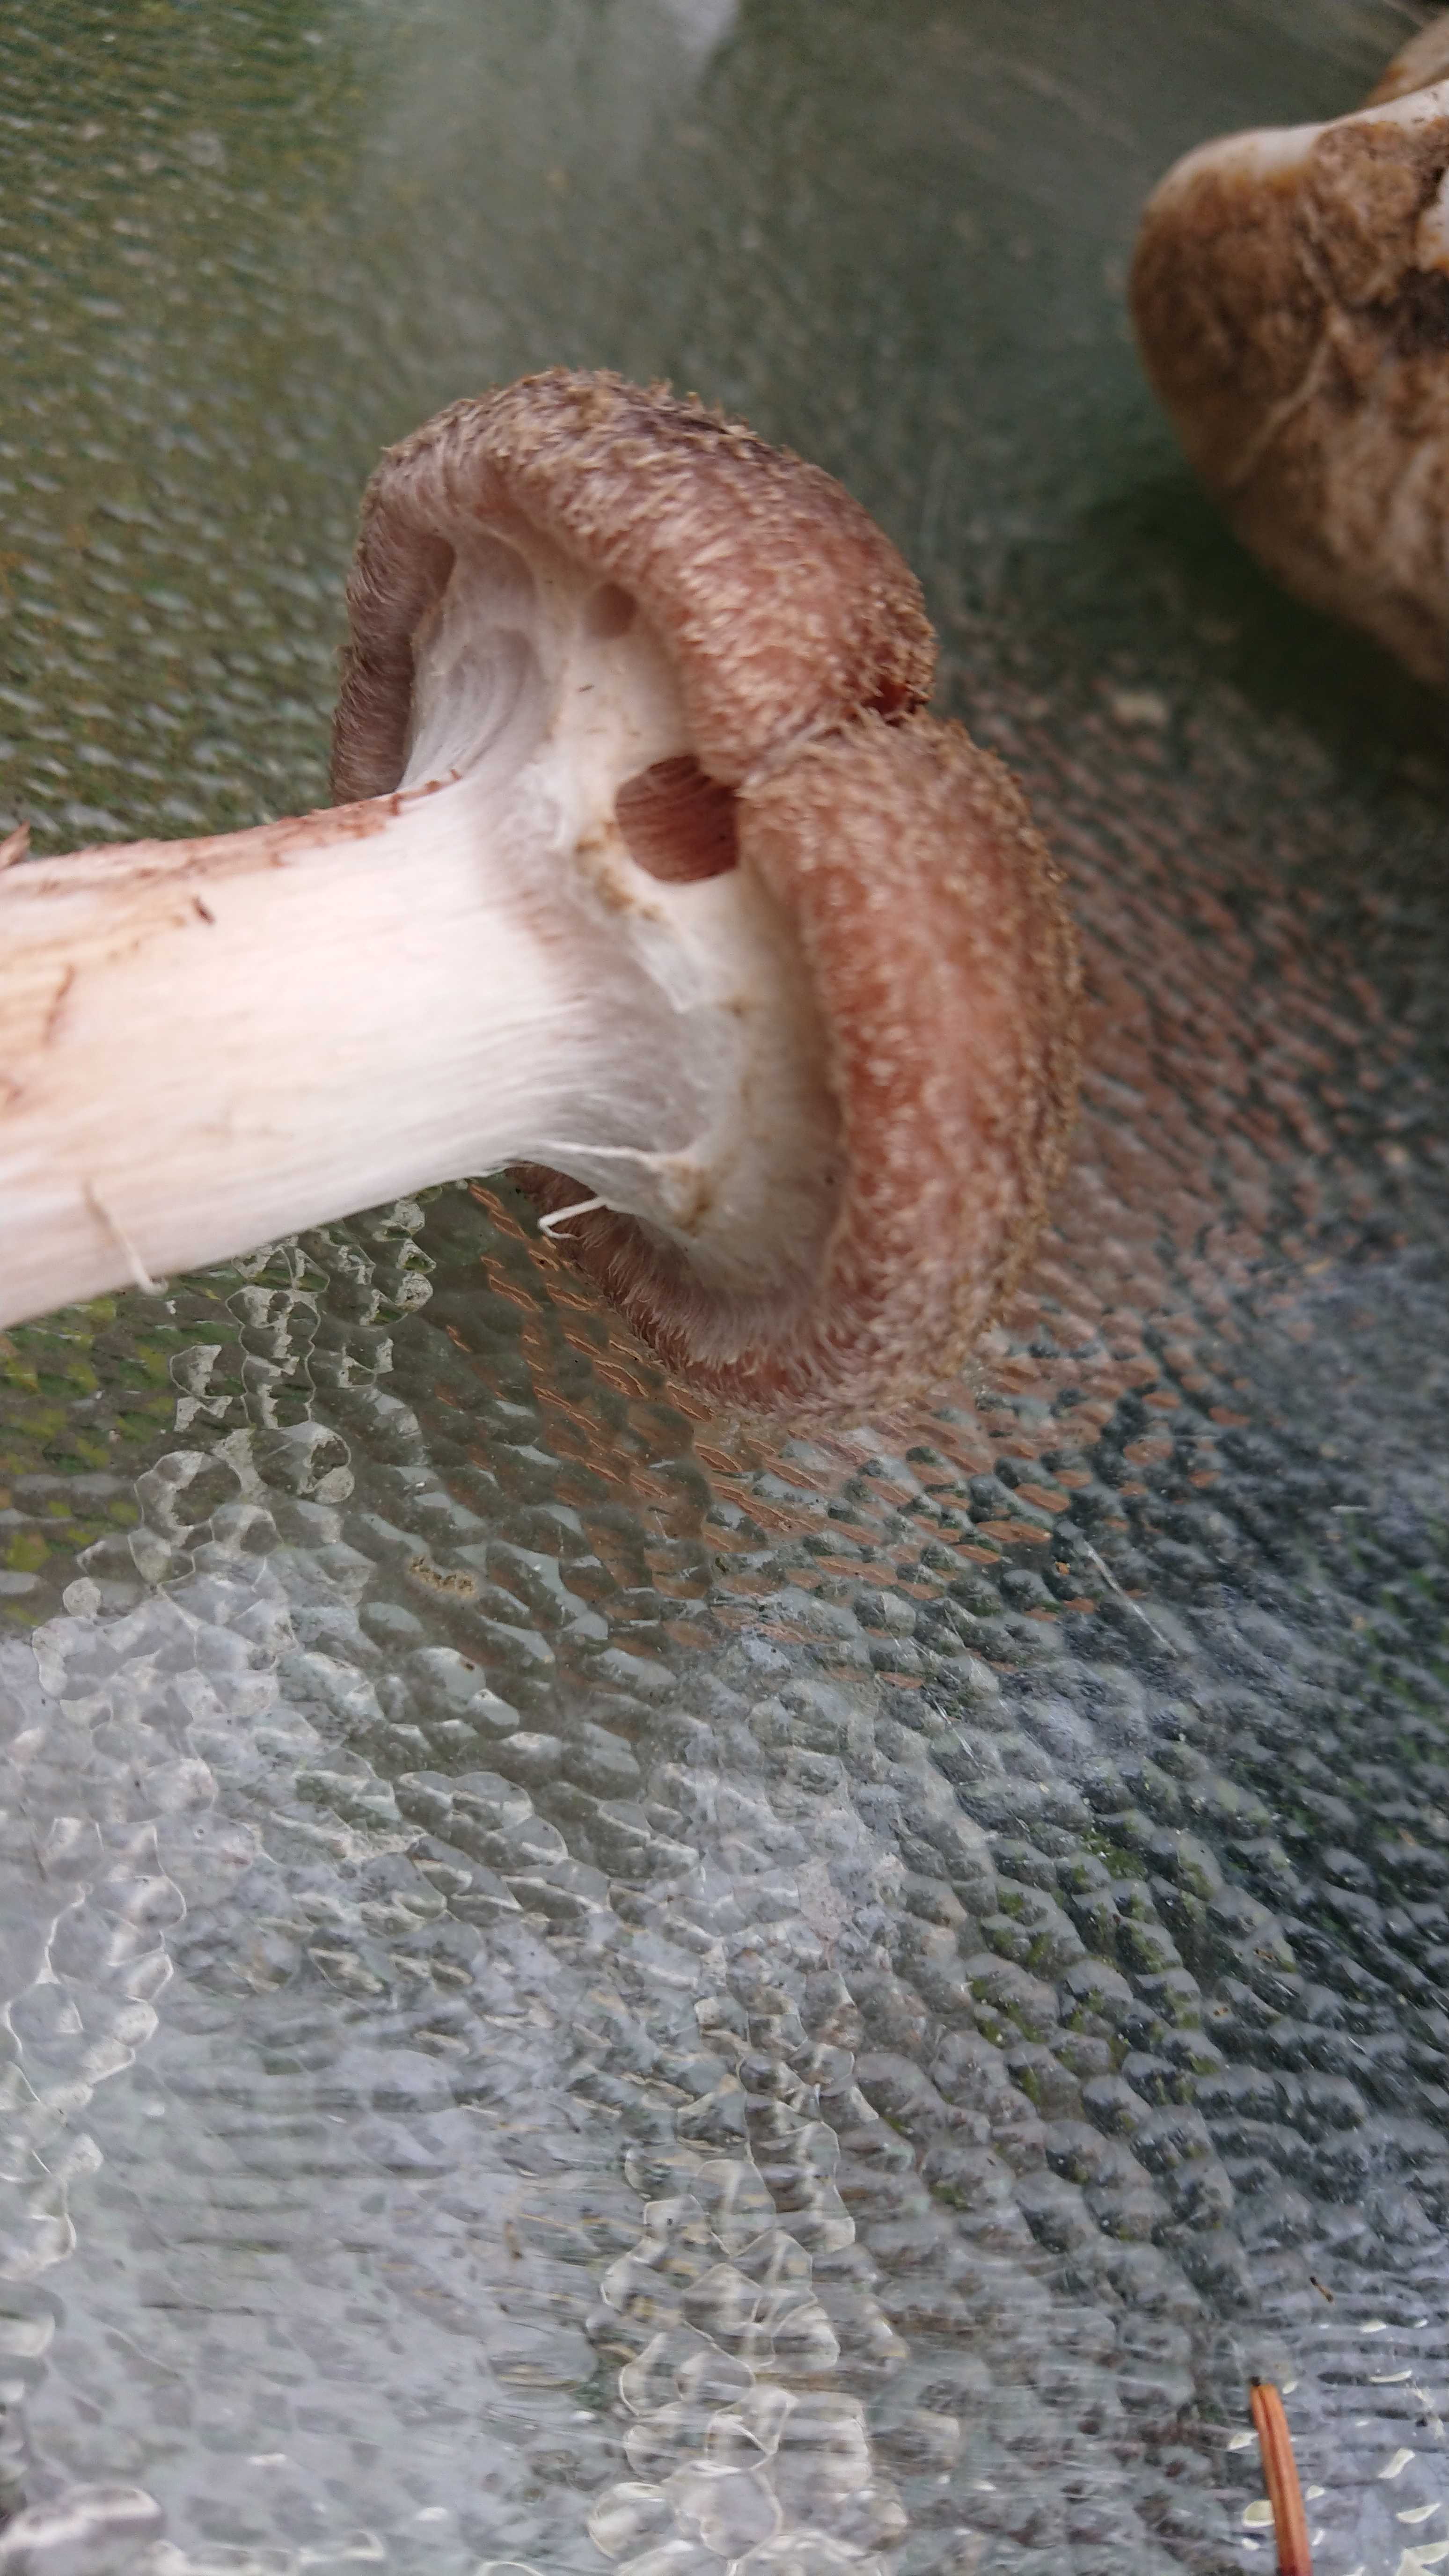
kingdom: Fungi
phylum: Basidiomycota
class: Agaricomycetes
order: Agaricales
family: Physalacriaceae
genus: Armillaria
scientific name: Armillaria
